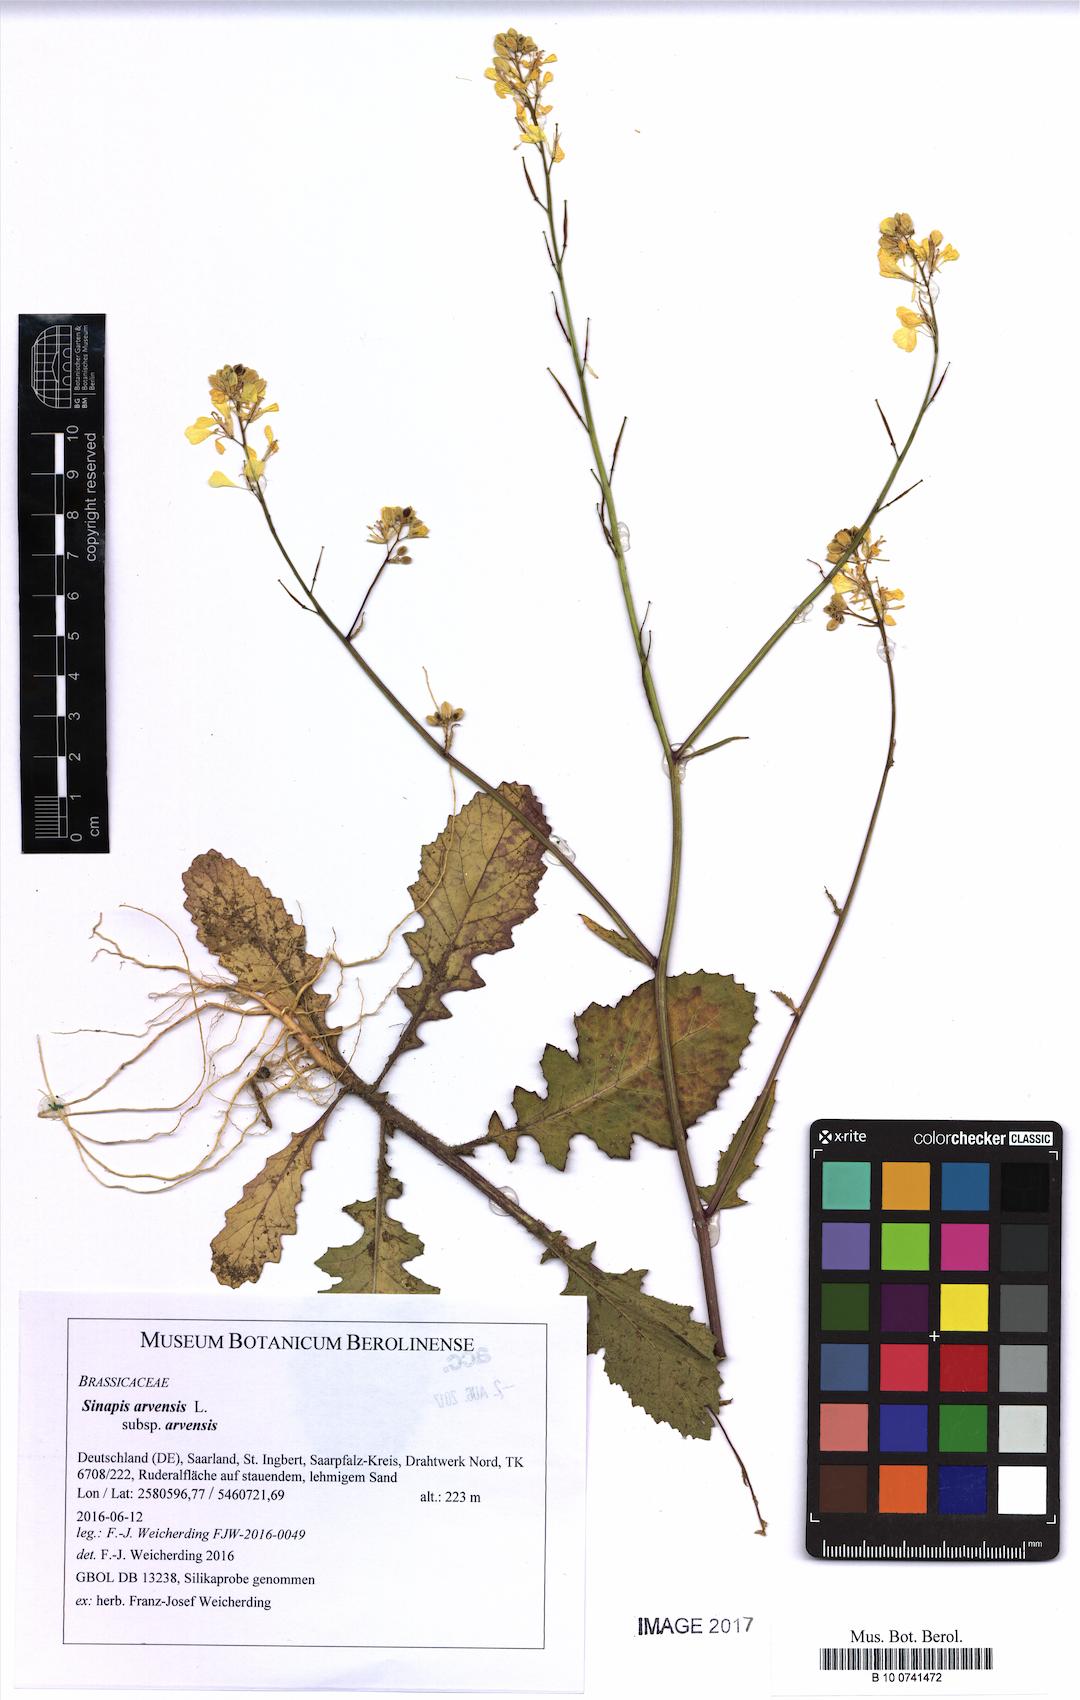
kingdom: Plantae
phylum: Tracheophyta
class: Magnoliopsida
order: Brassicales
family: Brassicaceae
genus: Sinapis
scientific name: Sinapis arvensis
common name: Charlock
